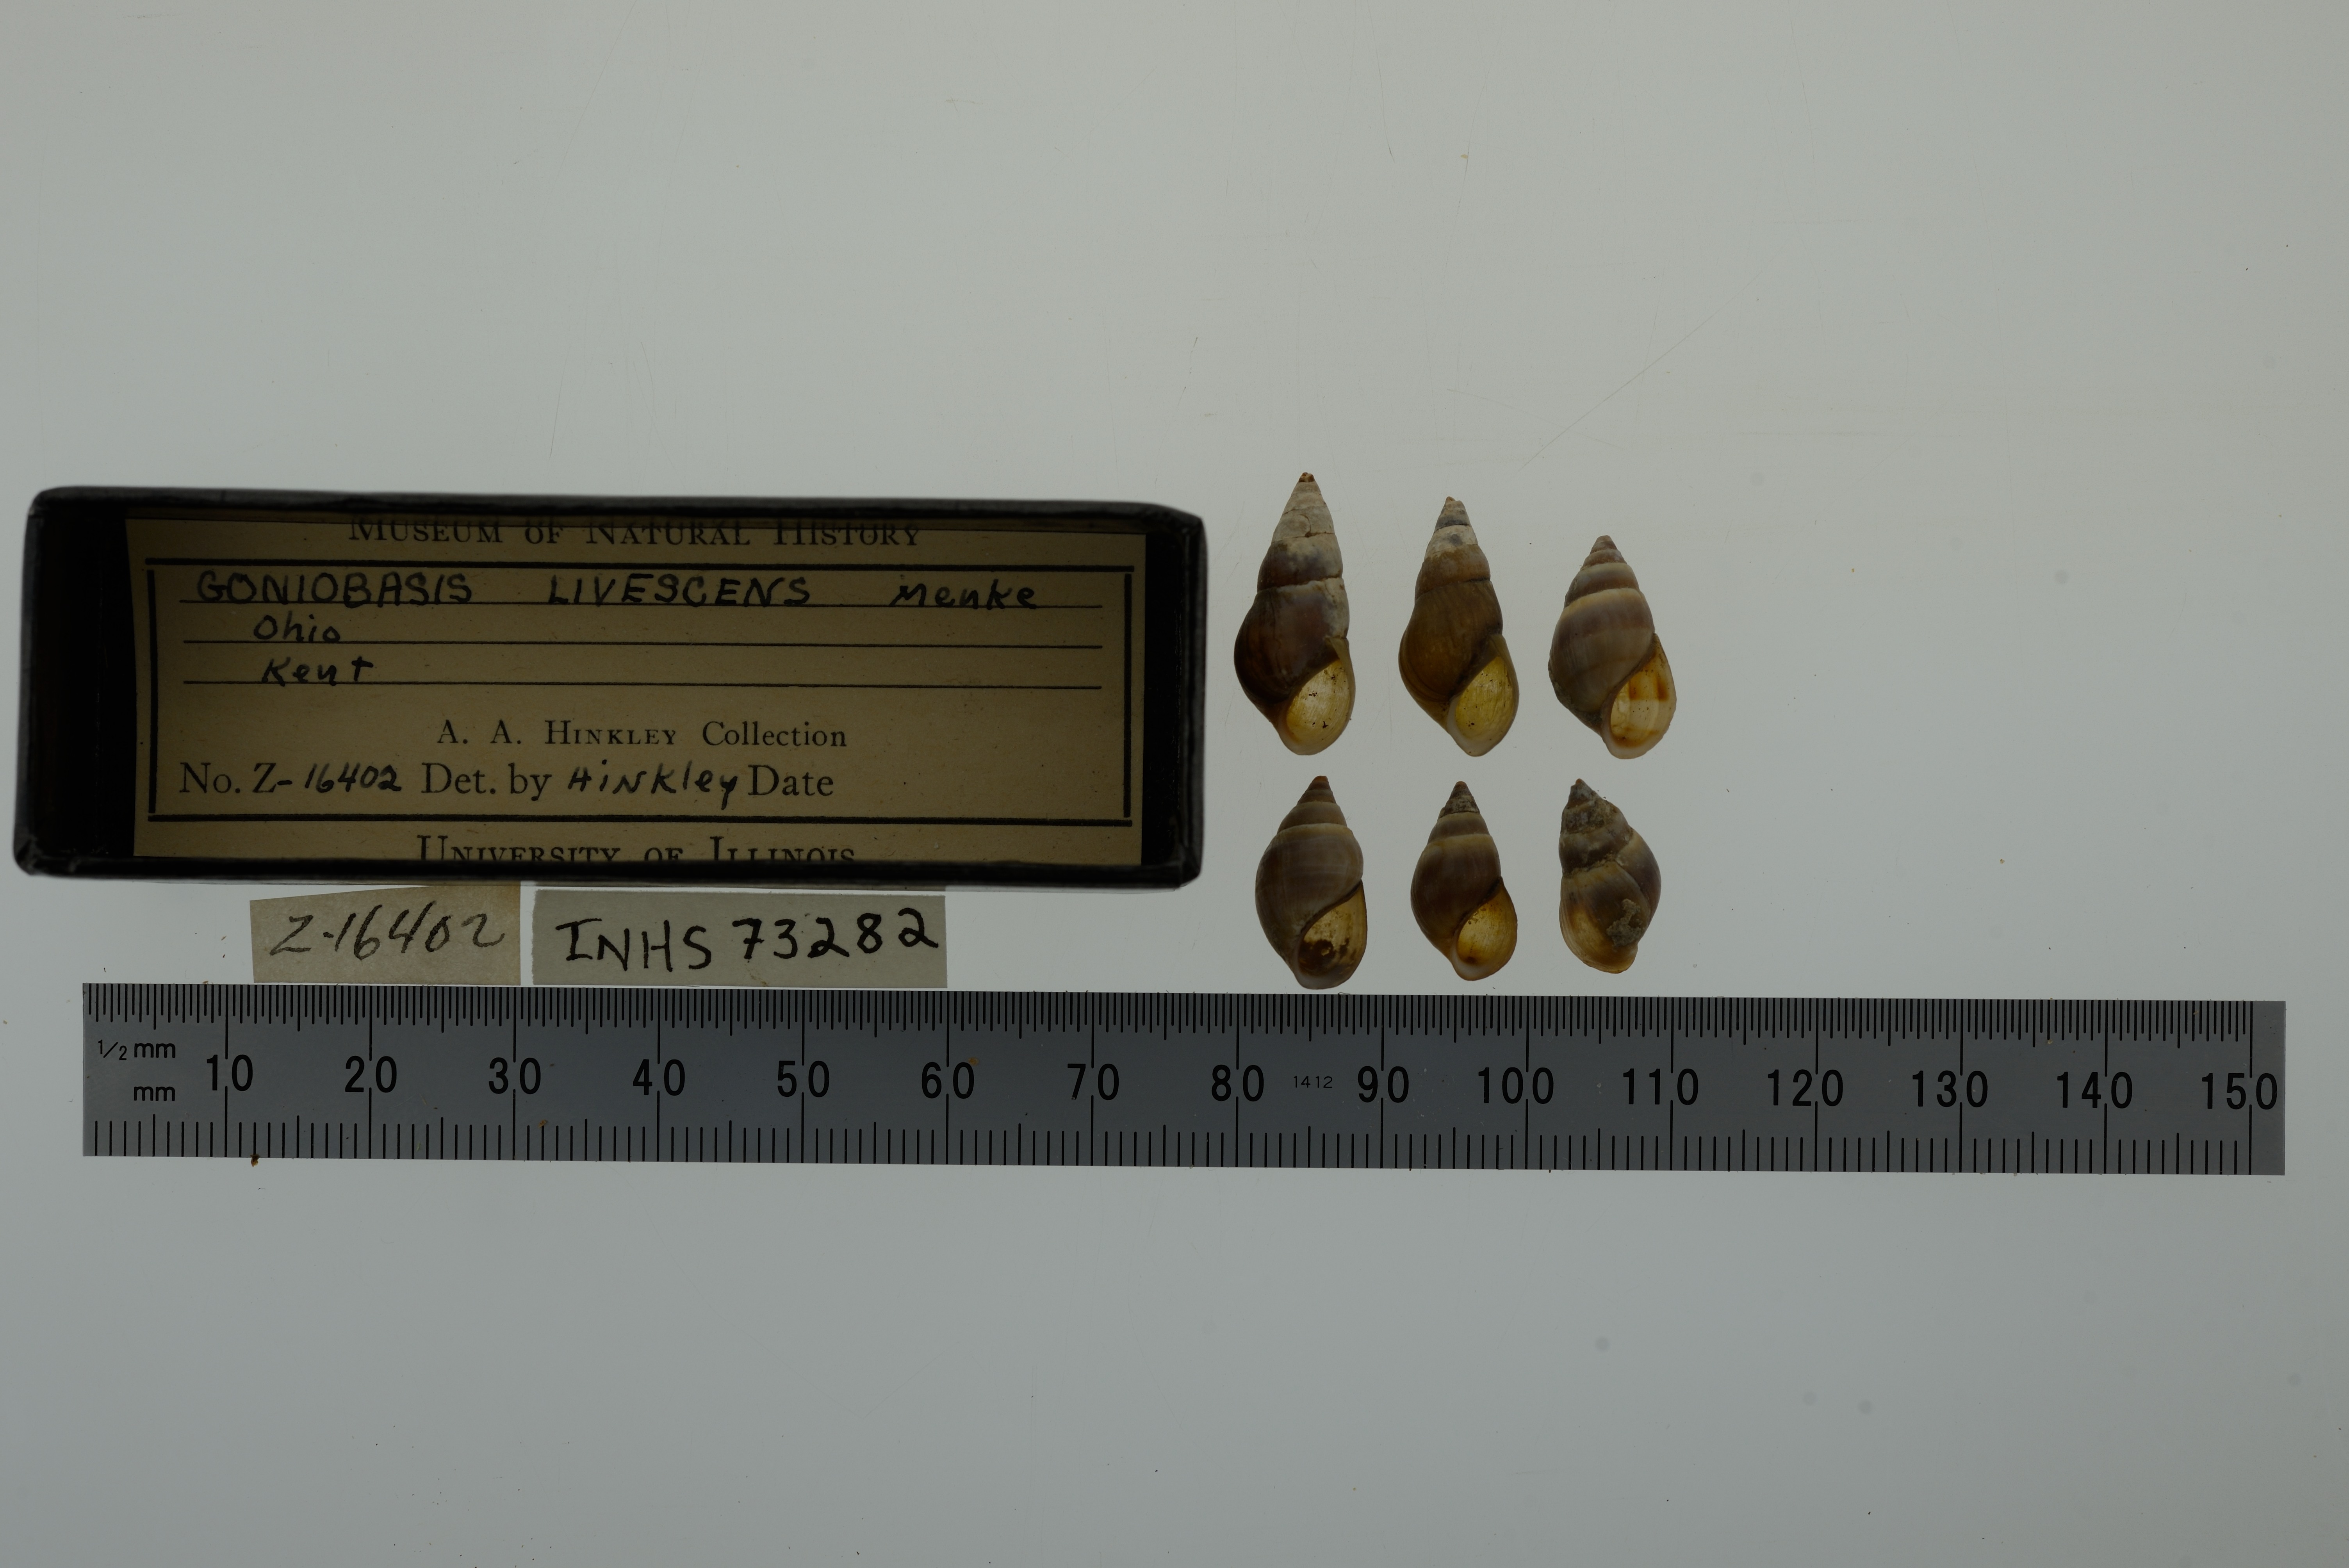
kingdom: Animalia
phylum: Mollusca
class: Gastropoda
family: Pleuroceridae
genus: Elimia
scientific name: Elimia livescens
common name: Liver elimia
